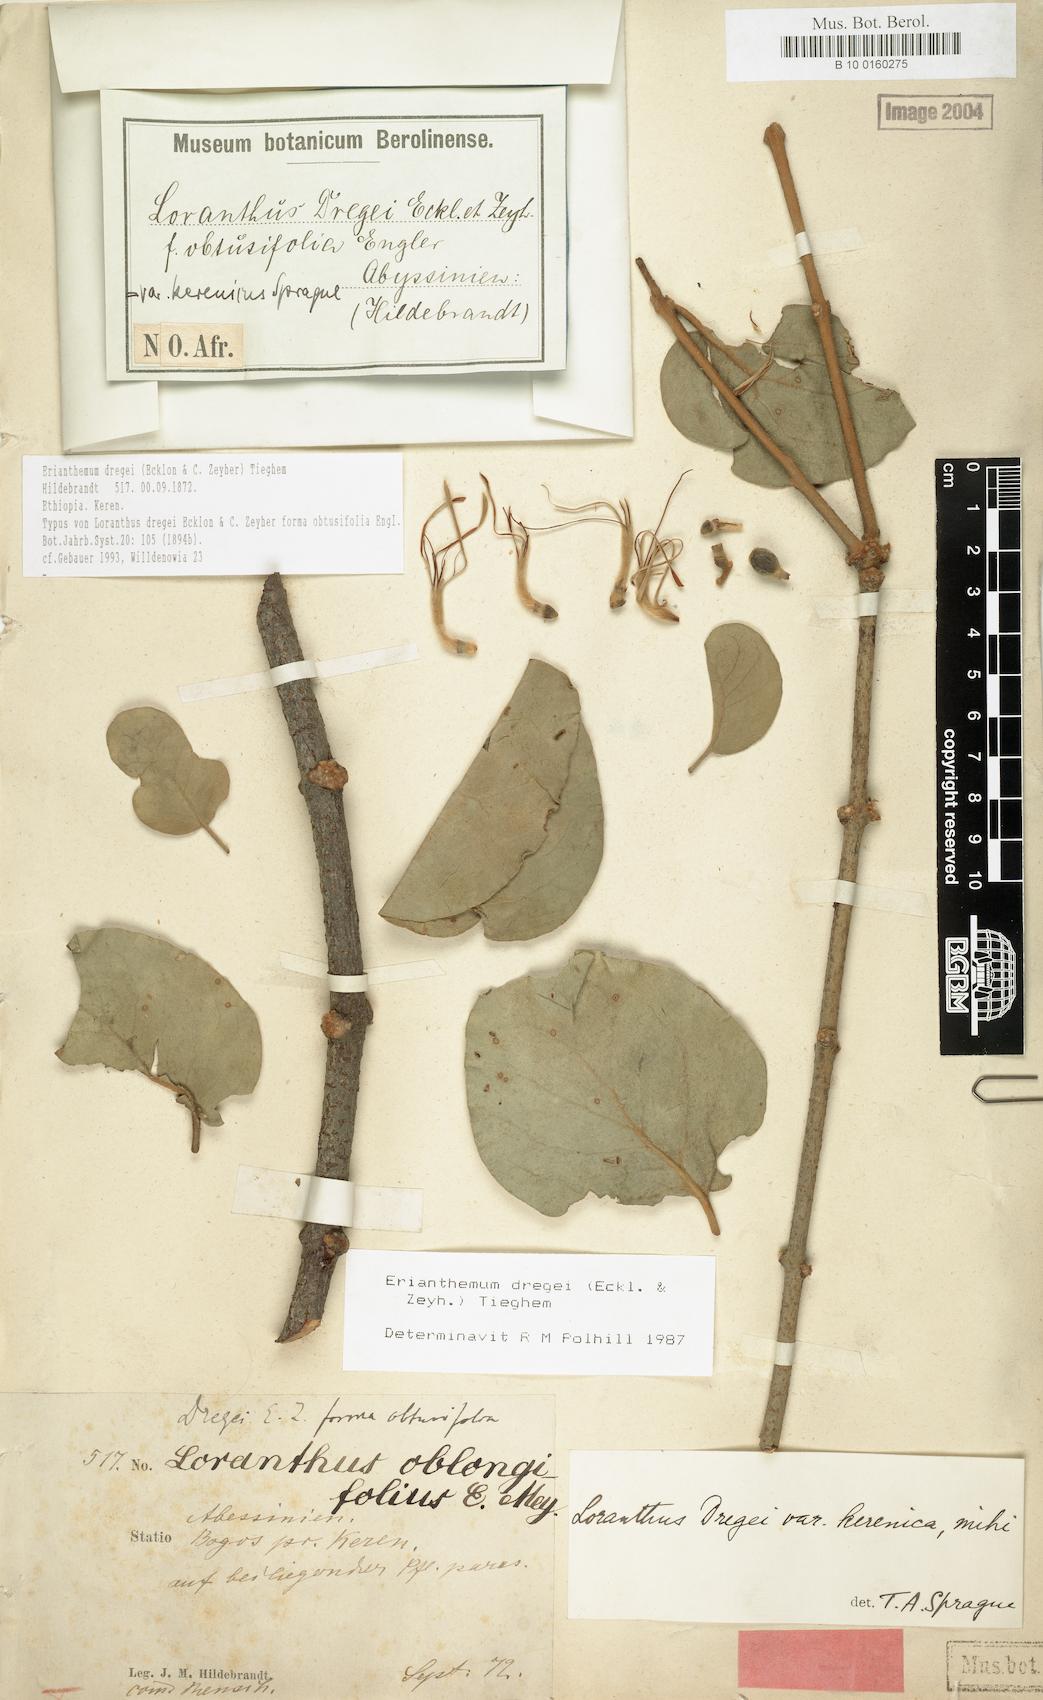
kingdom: Plantae
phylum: Tracheophyta
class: Magnoliopsida
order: Santalales
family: Loranthaceae
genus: Erianthemum
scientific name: Erianthemum dregei
